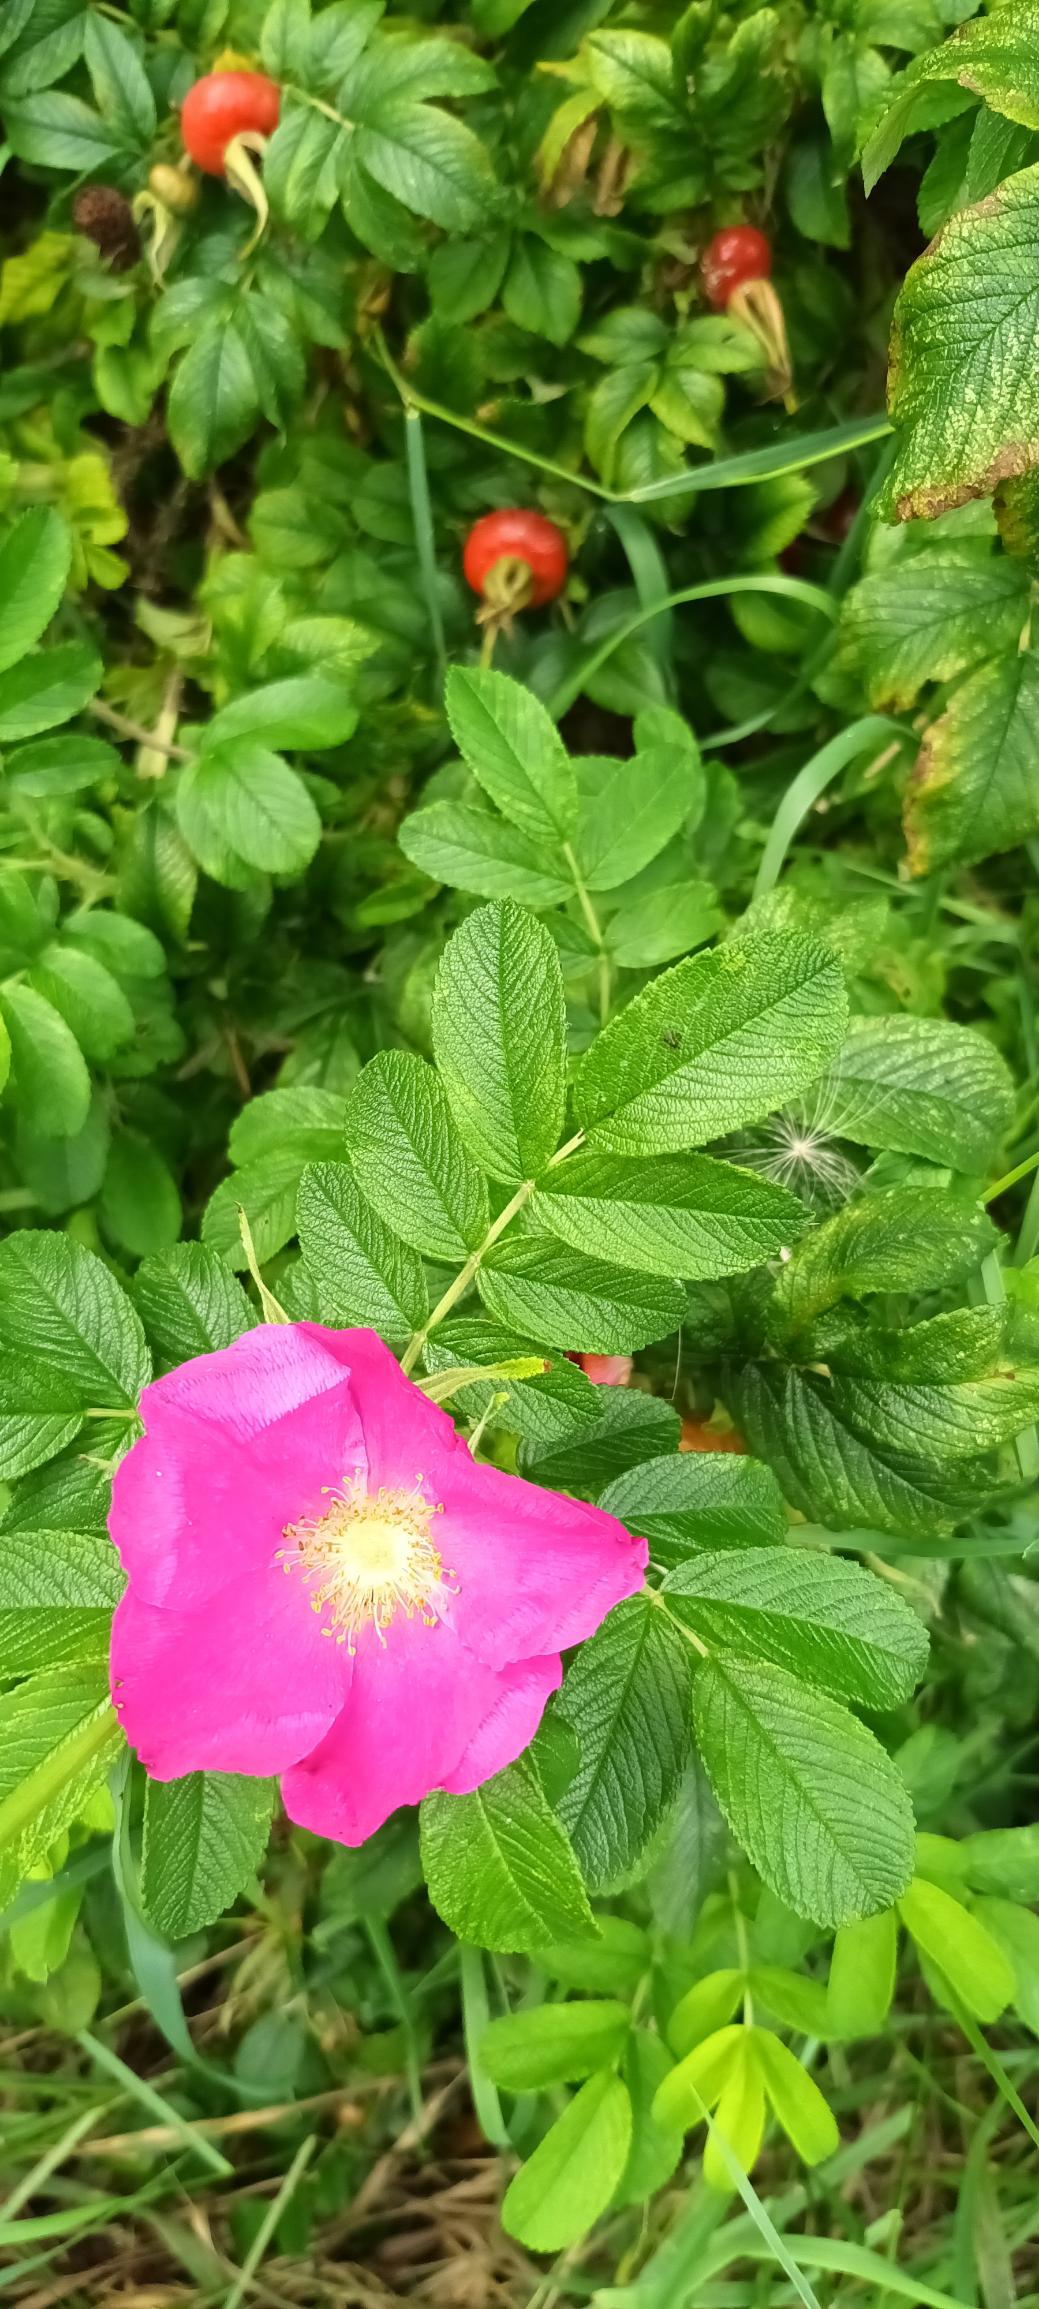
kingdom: Plantae
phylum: Tracheophyta
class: Magnoliopsida
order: Rosales
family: Rosaceae
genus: Rosa
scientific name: Rosa rugosa
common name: Rynket rose
